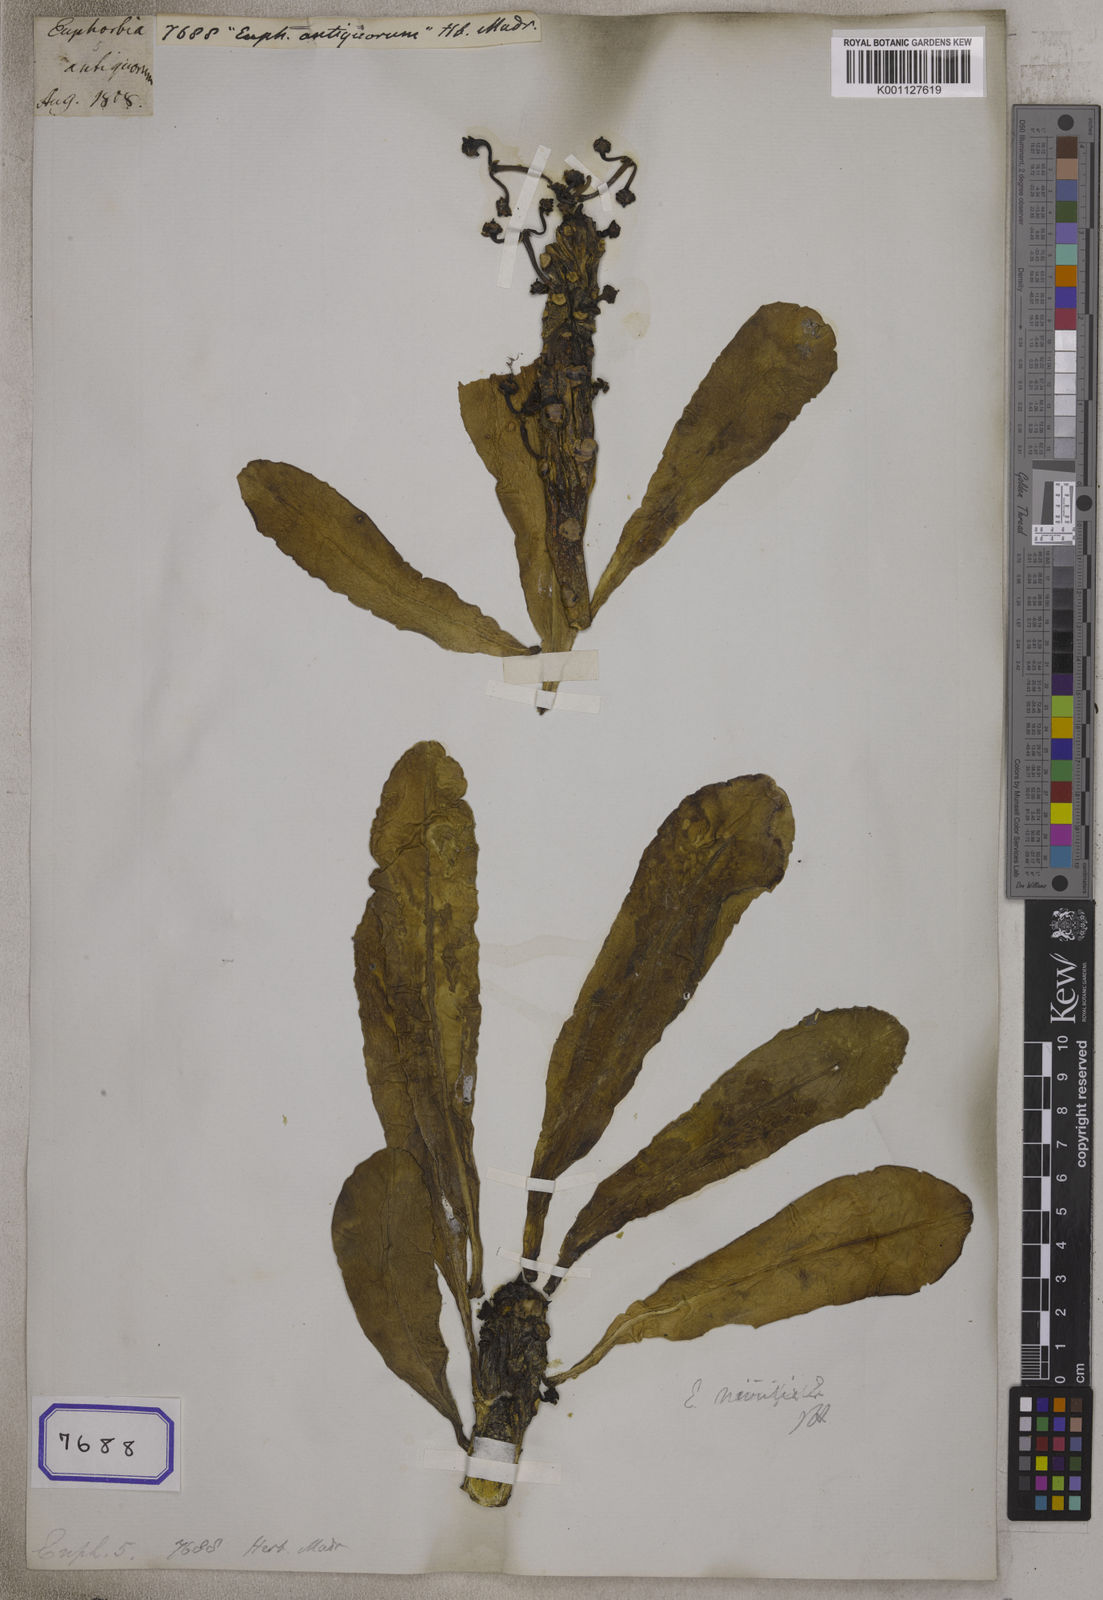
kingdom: Plantae
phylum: Tracheophyta
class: Magnoliopsida
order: Malpighiales
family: Euphorbiaceae
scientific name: Euphorbiaceae
